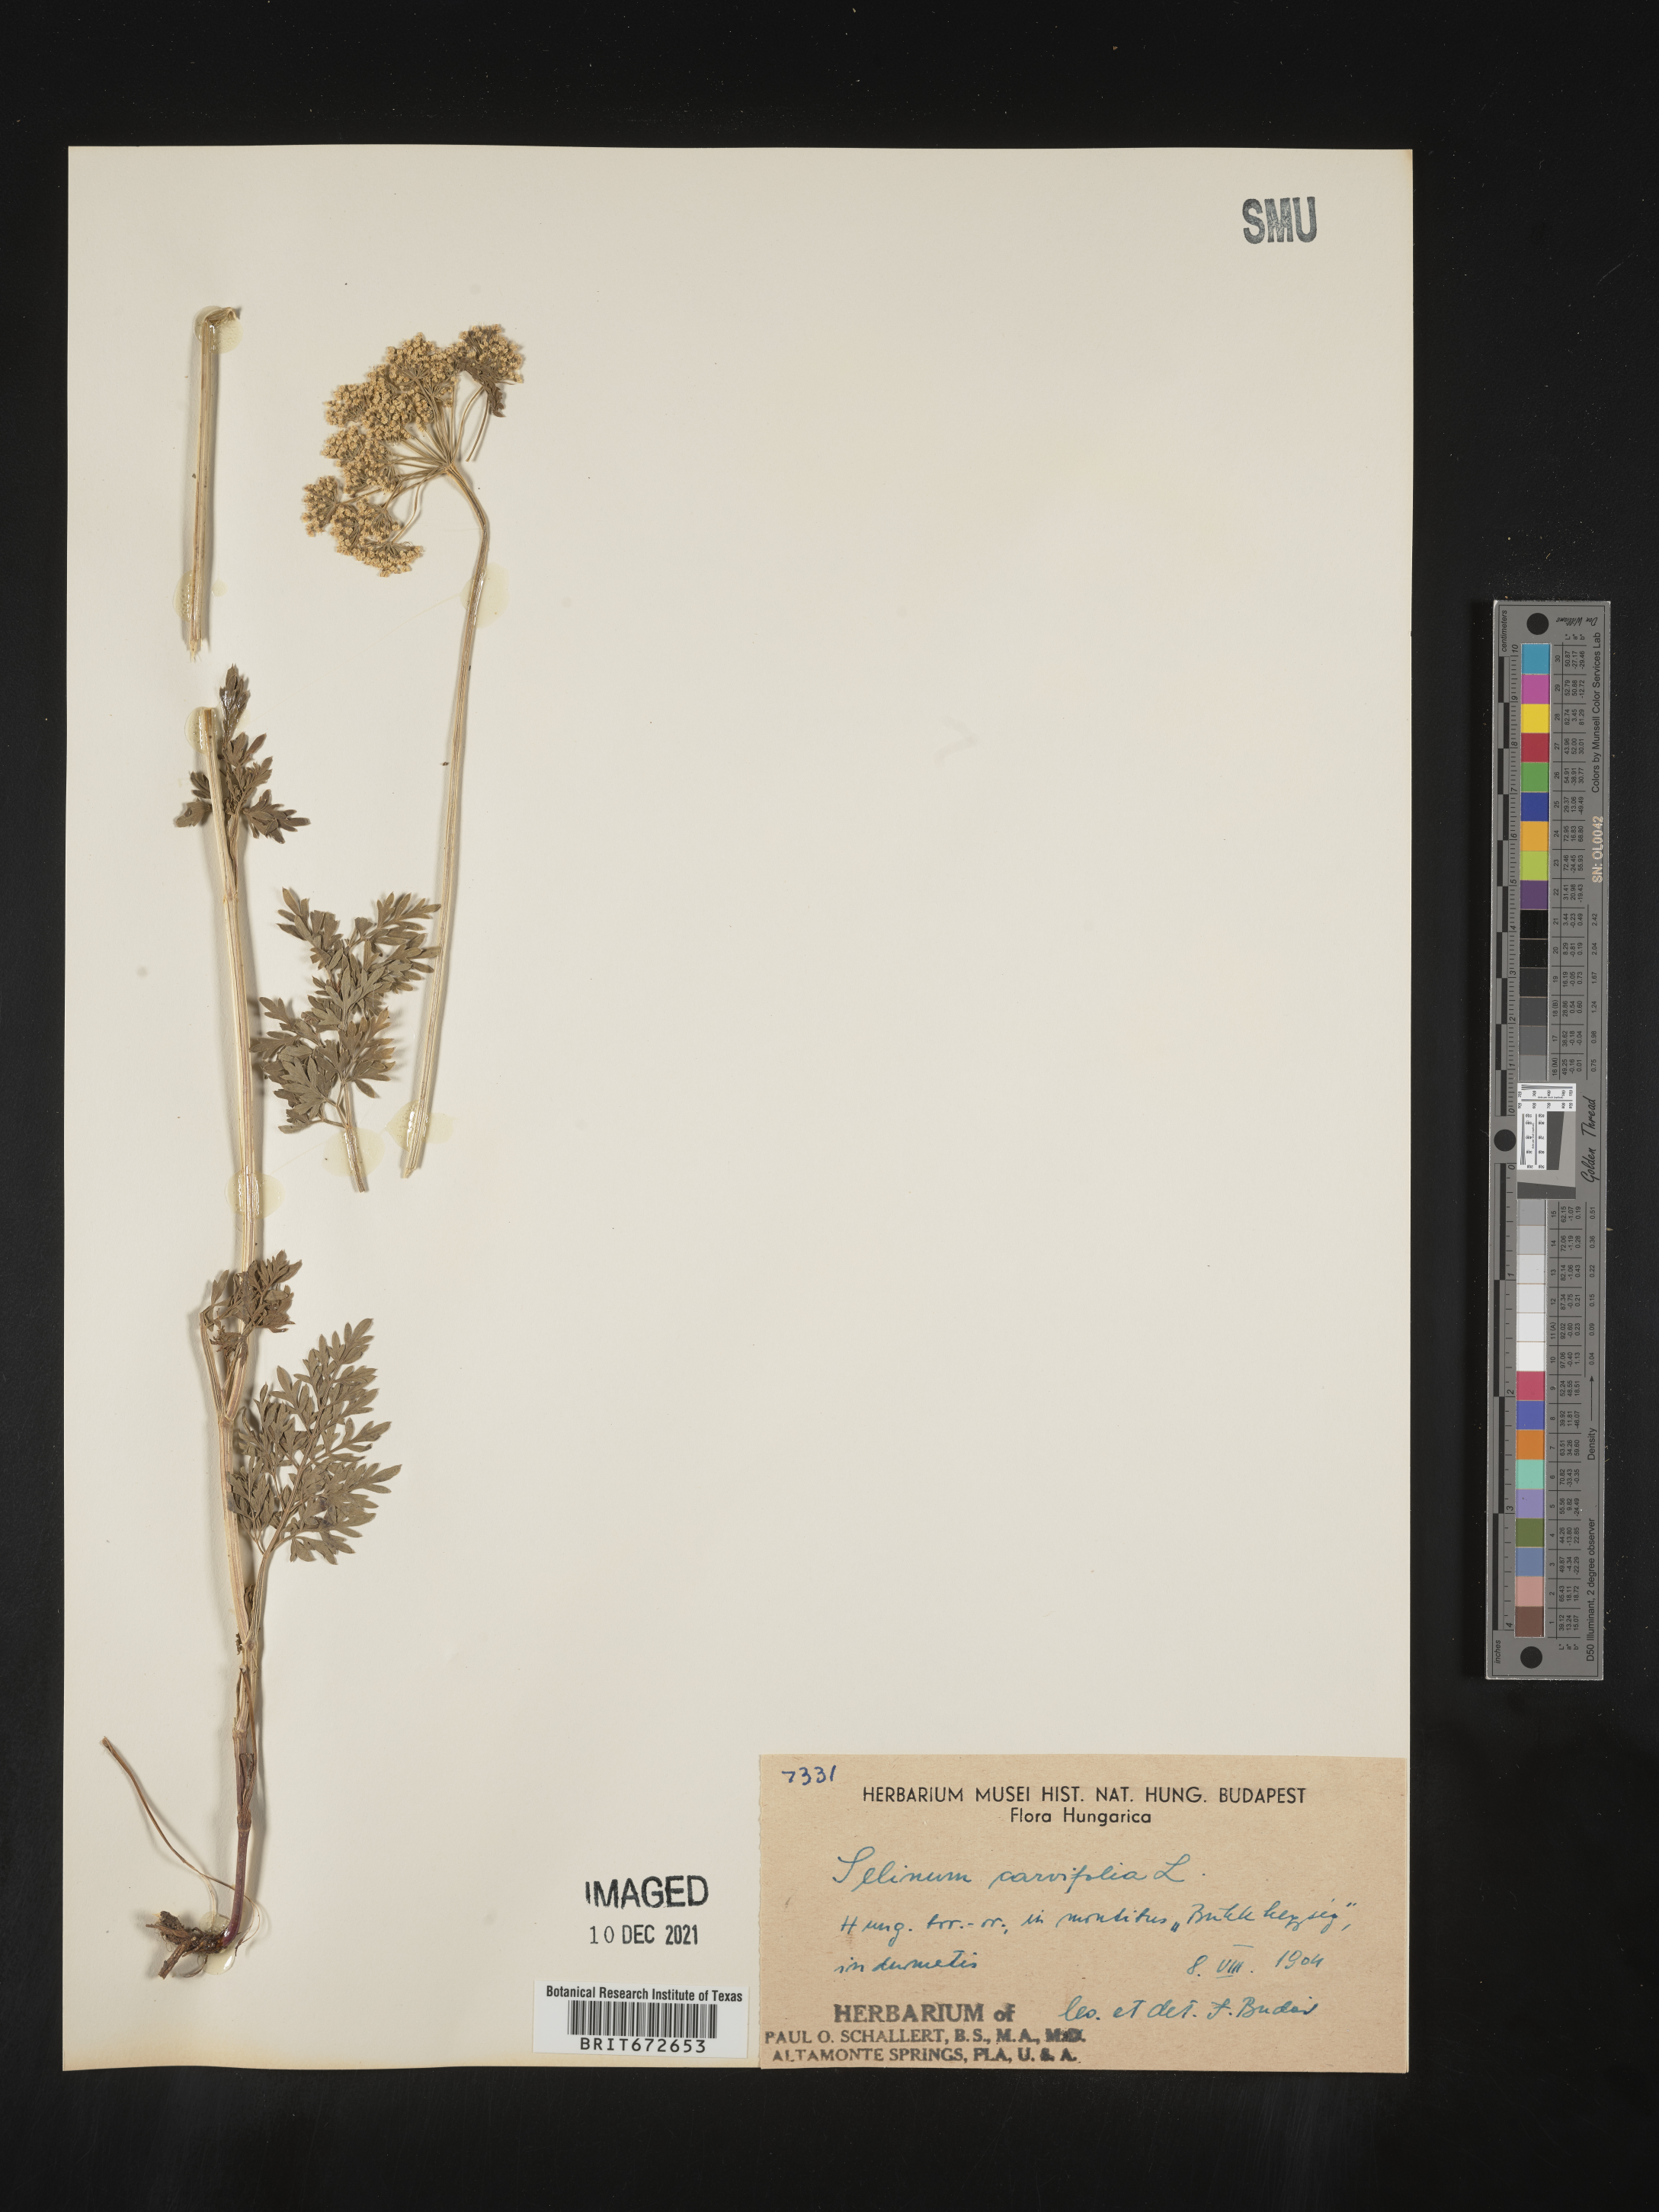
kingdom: Plantae
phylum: Tracheophyta
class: Magnoliopsida
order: Apiales
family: Apiaceae
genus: Selinum
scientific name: Selinum
